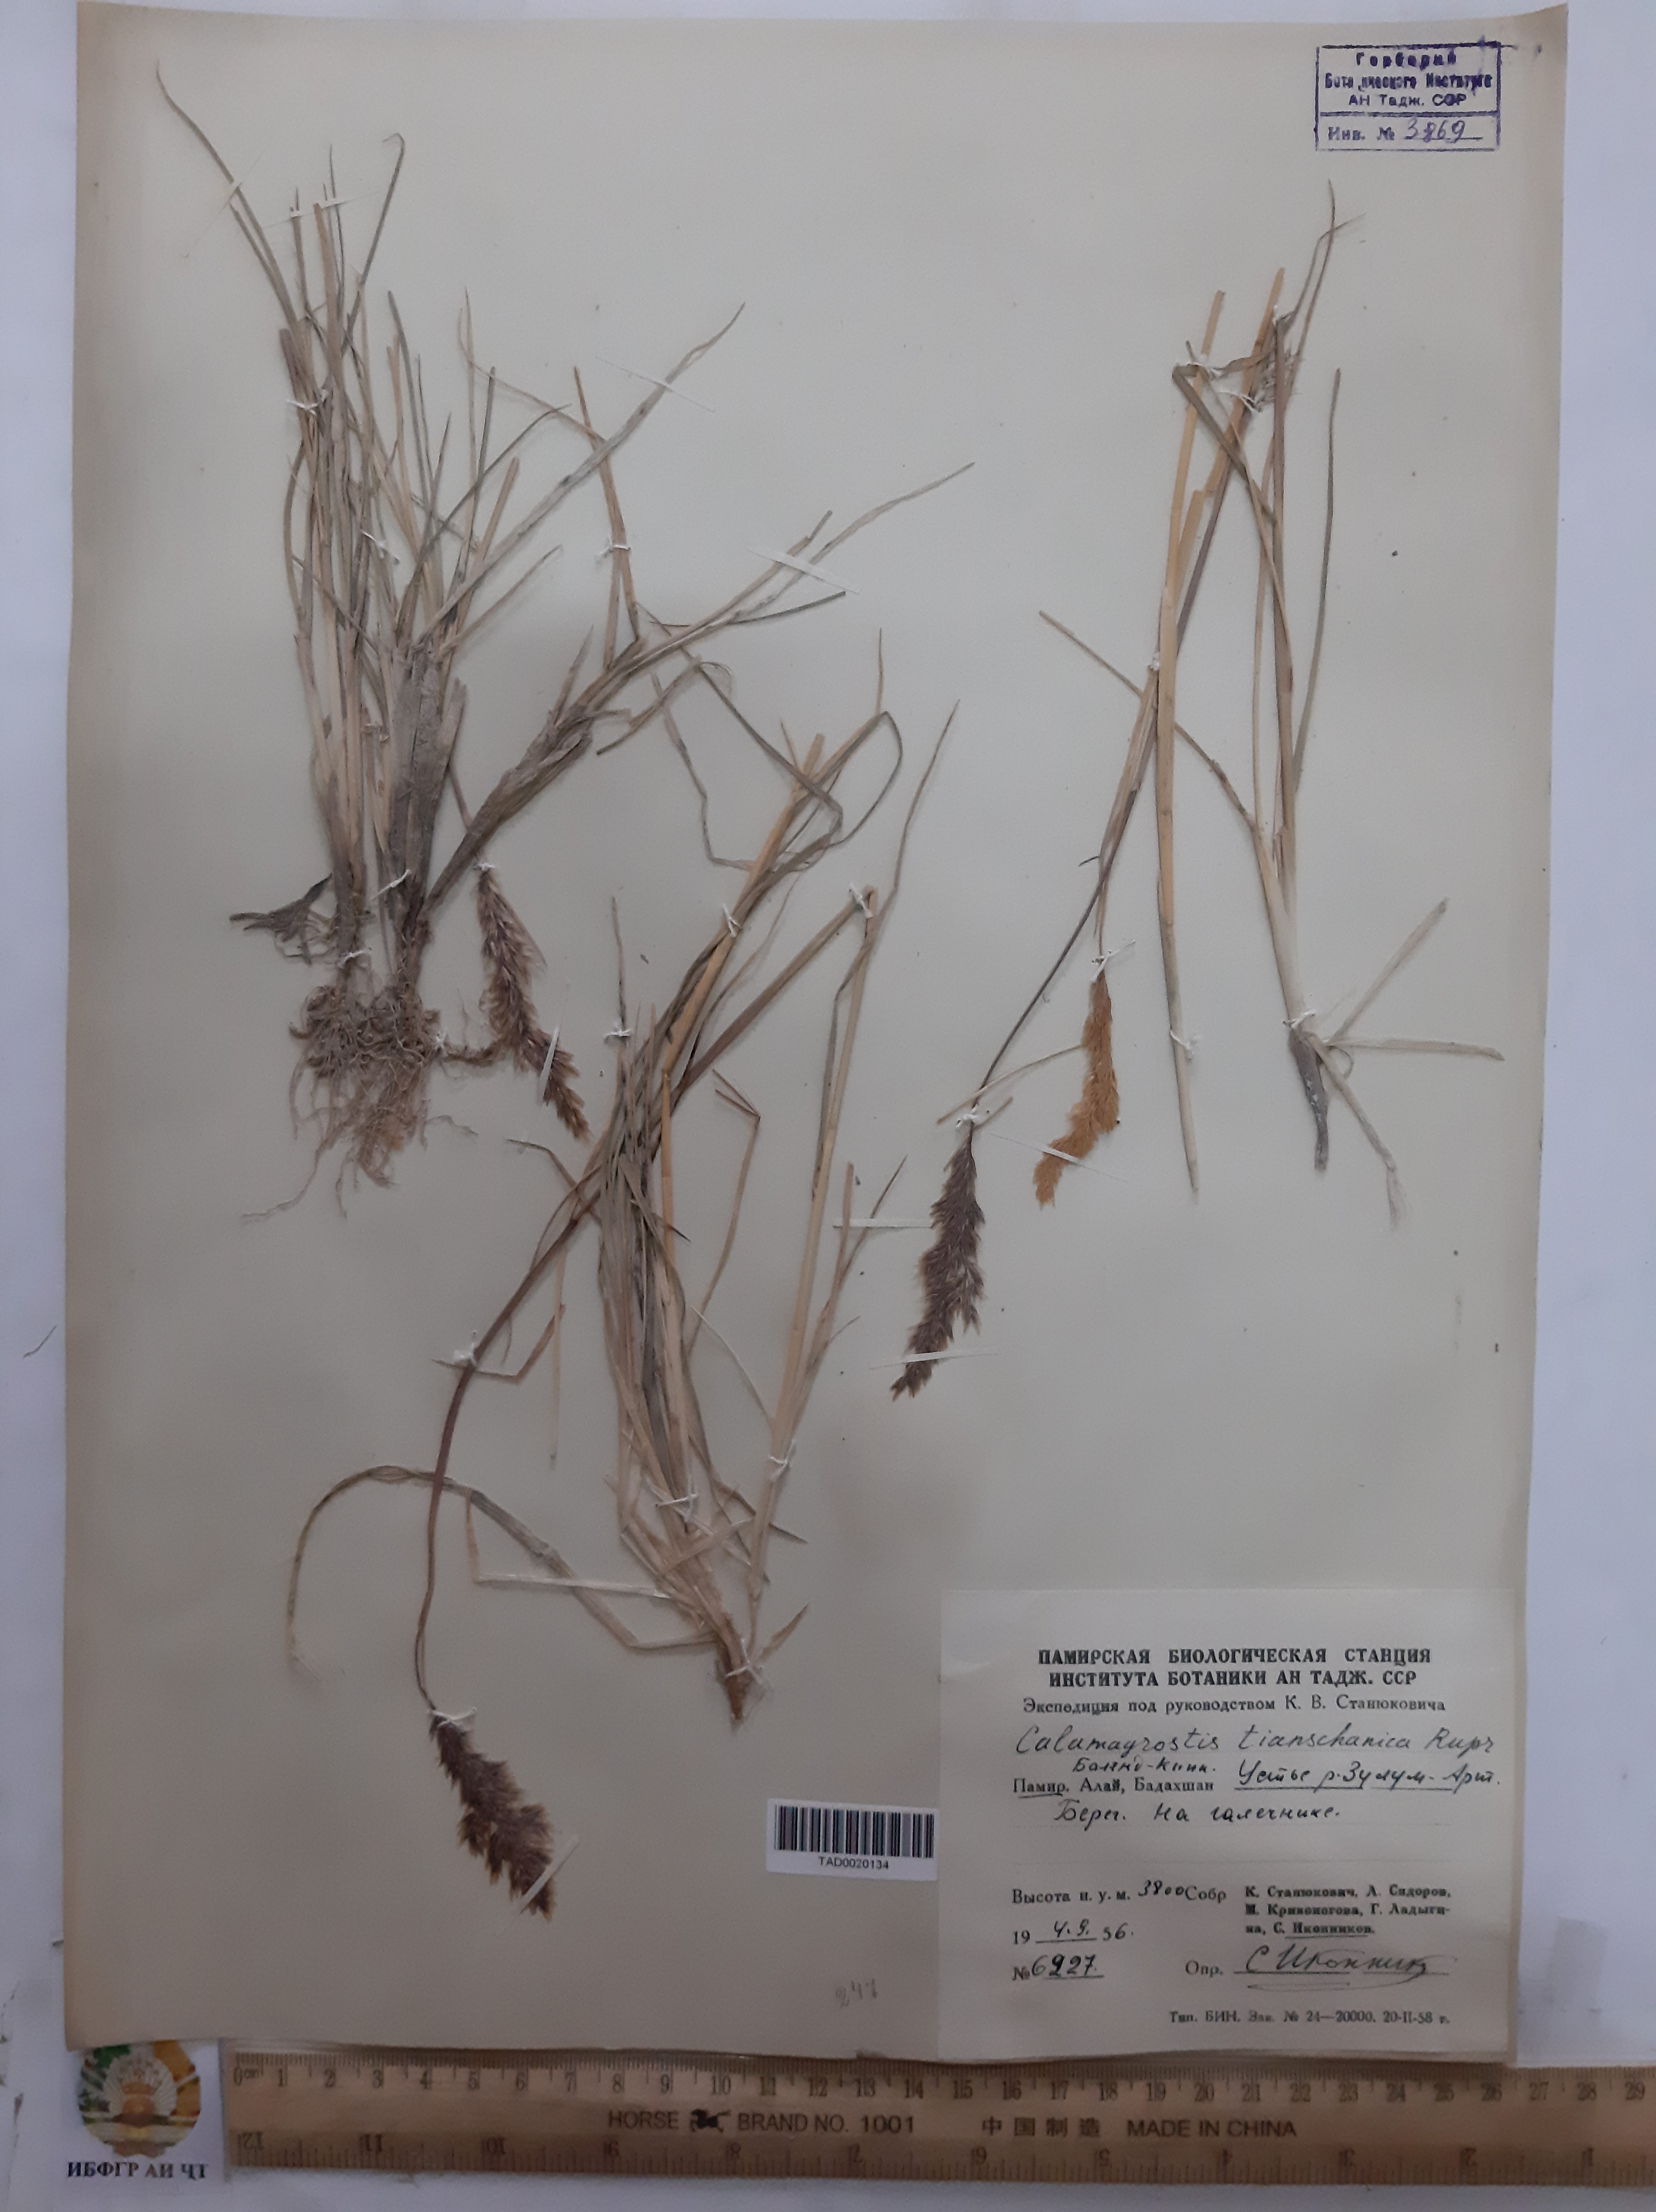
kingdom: Plantae
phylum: Tracheophyta
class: Liliopsida
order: Poales
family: Poaceae
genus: Calamagrostis
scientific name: Calamagrostis tianschanica
